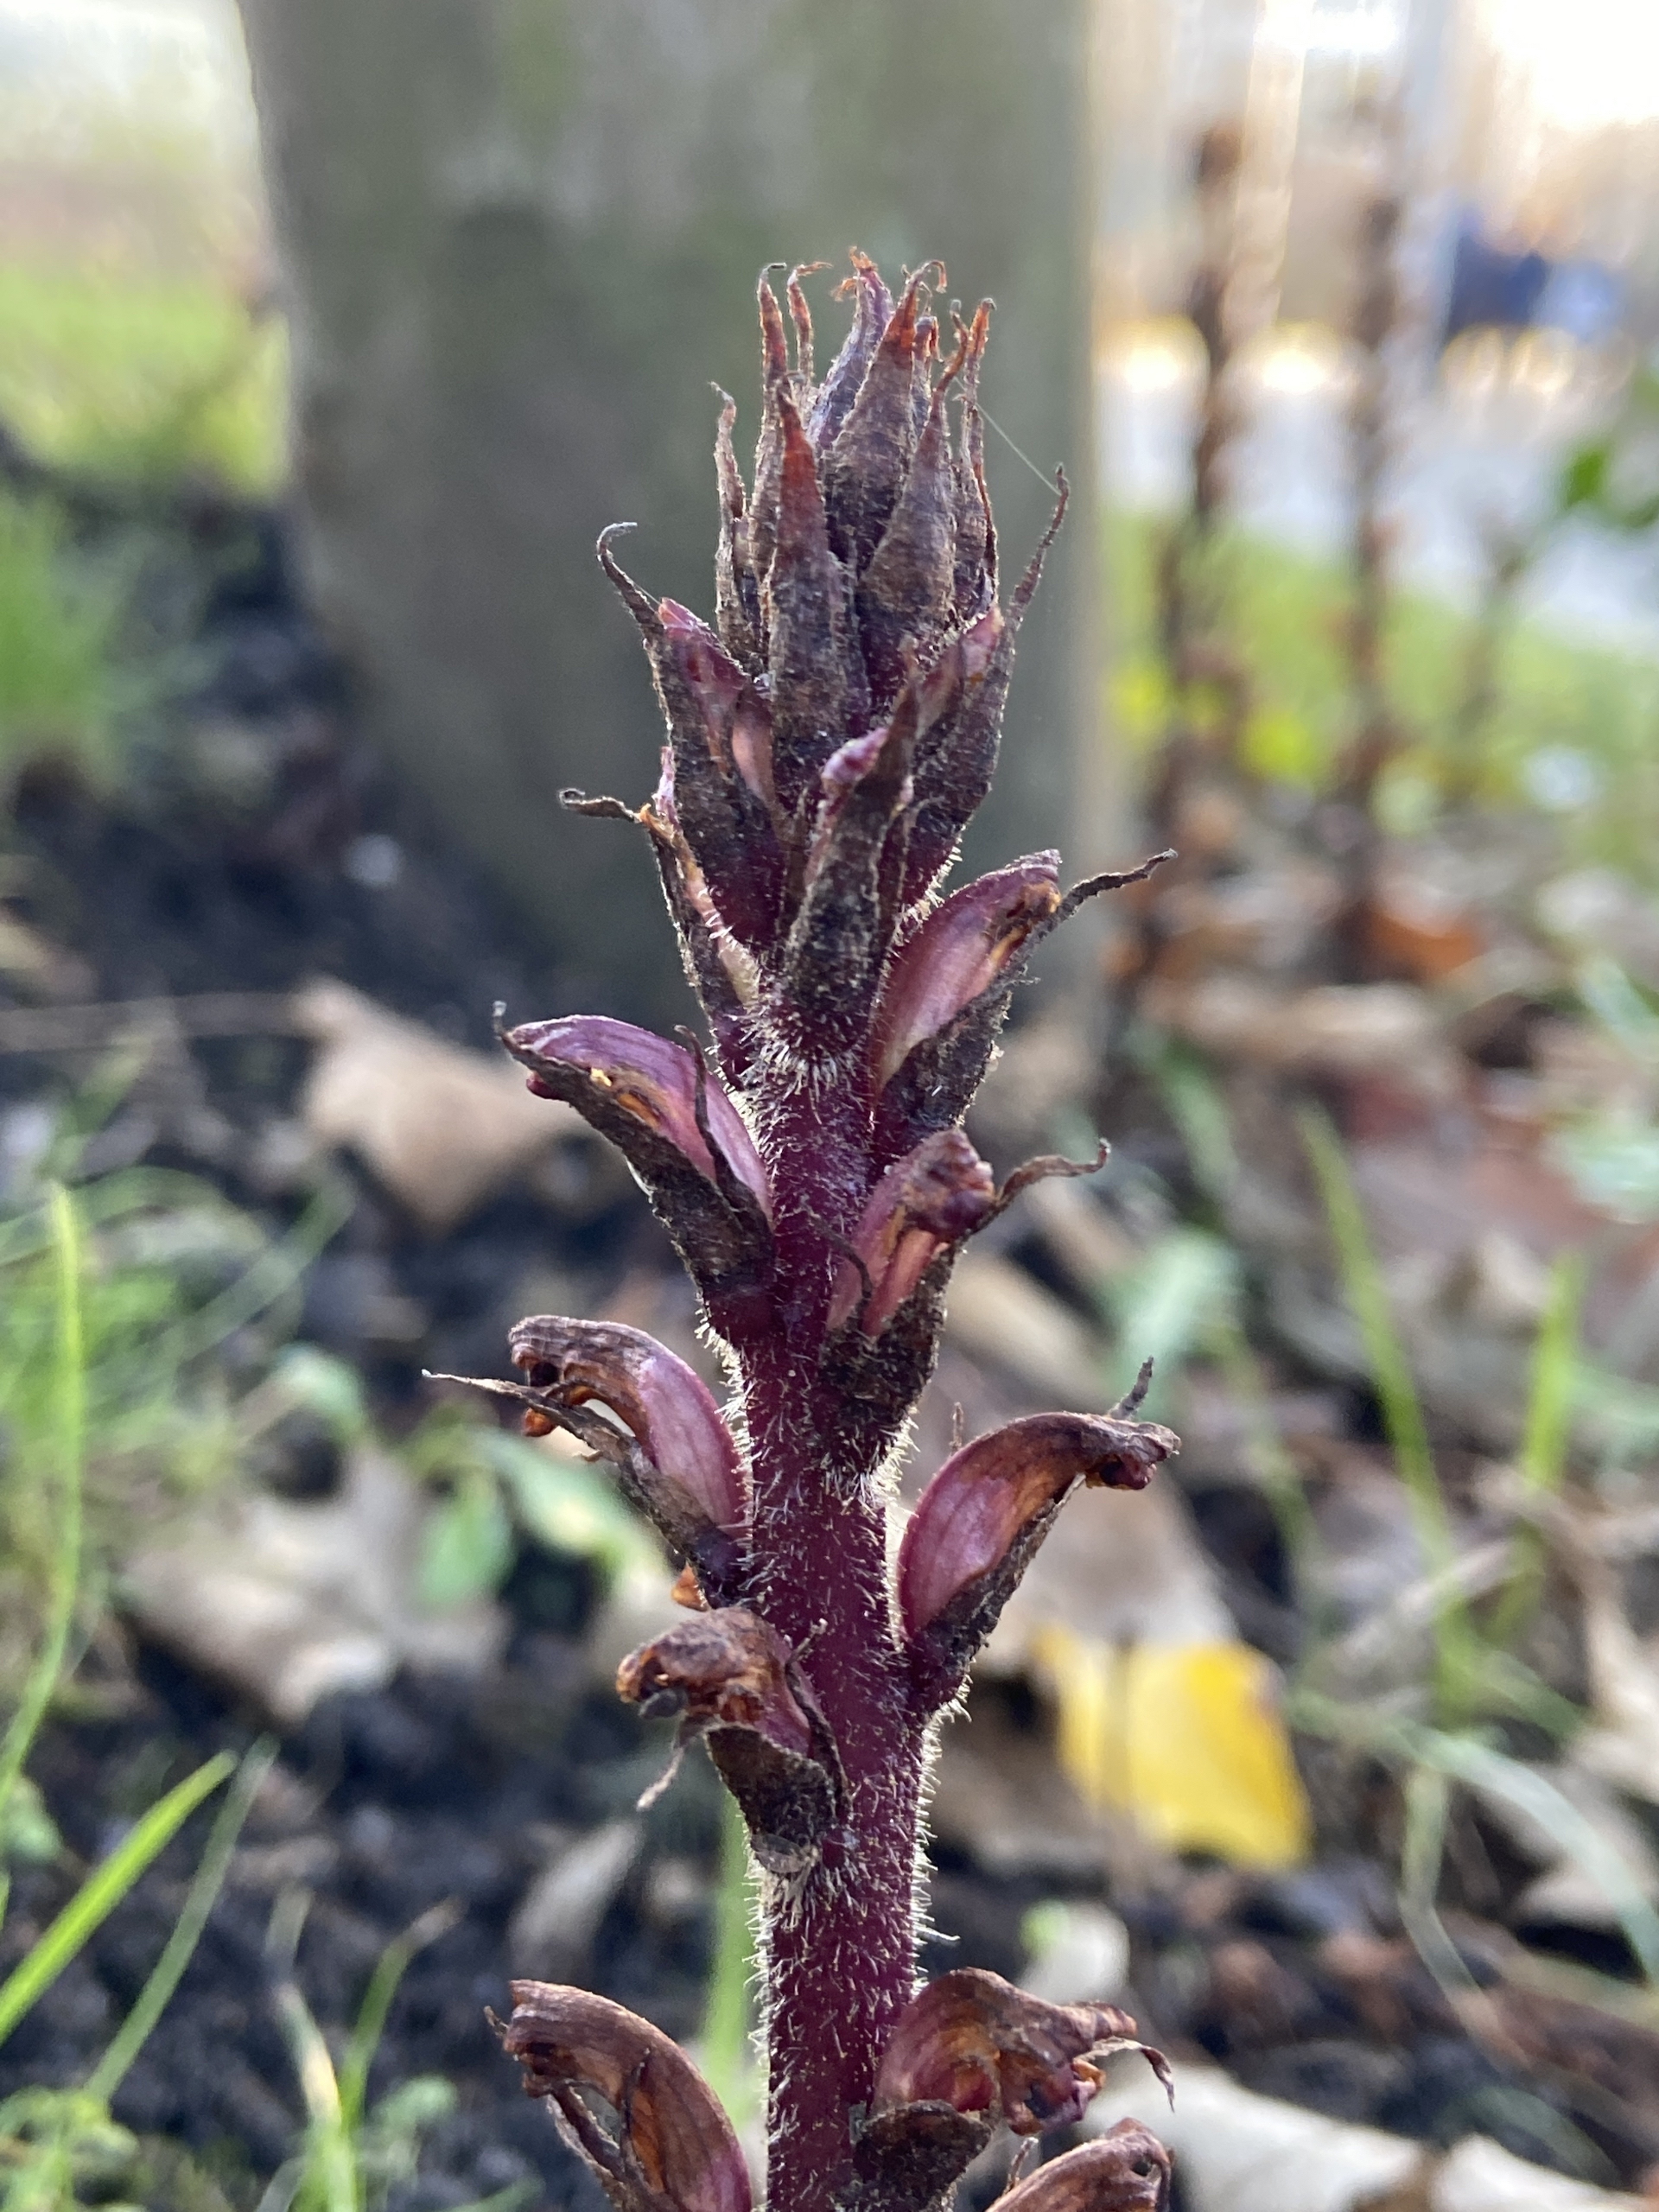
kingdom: Plantae
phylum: Tracheophyta
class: Magnoliopsida
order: Lamiales
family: Orobanchaceae
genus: Orobanche
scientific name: Orobanche hederae
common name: Vedbend-gyvelkvæler
